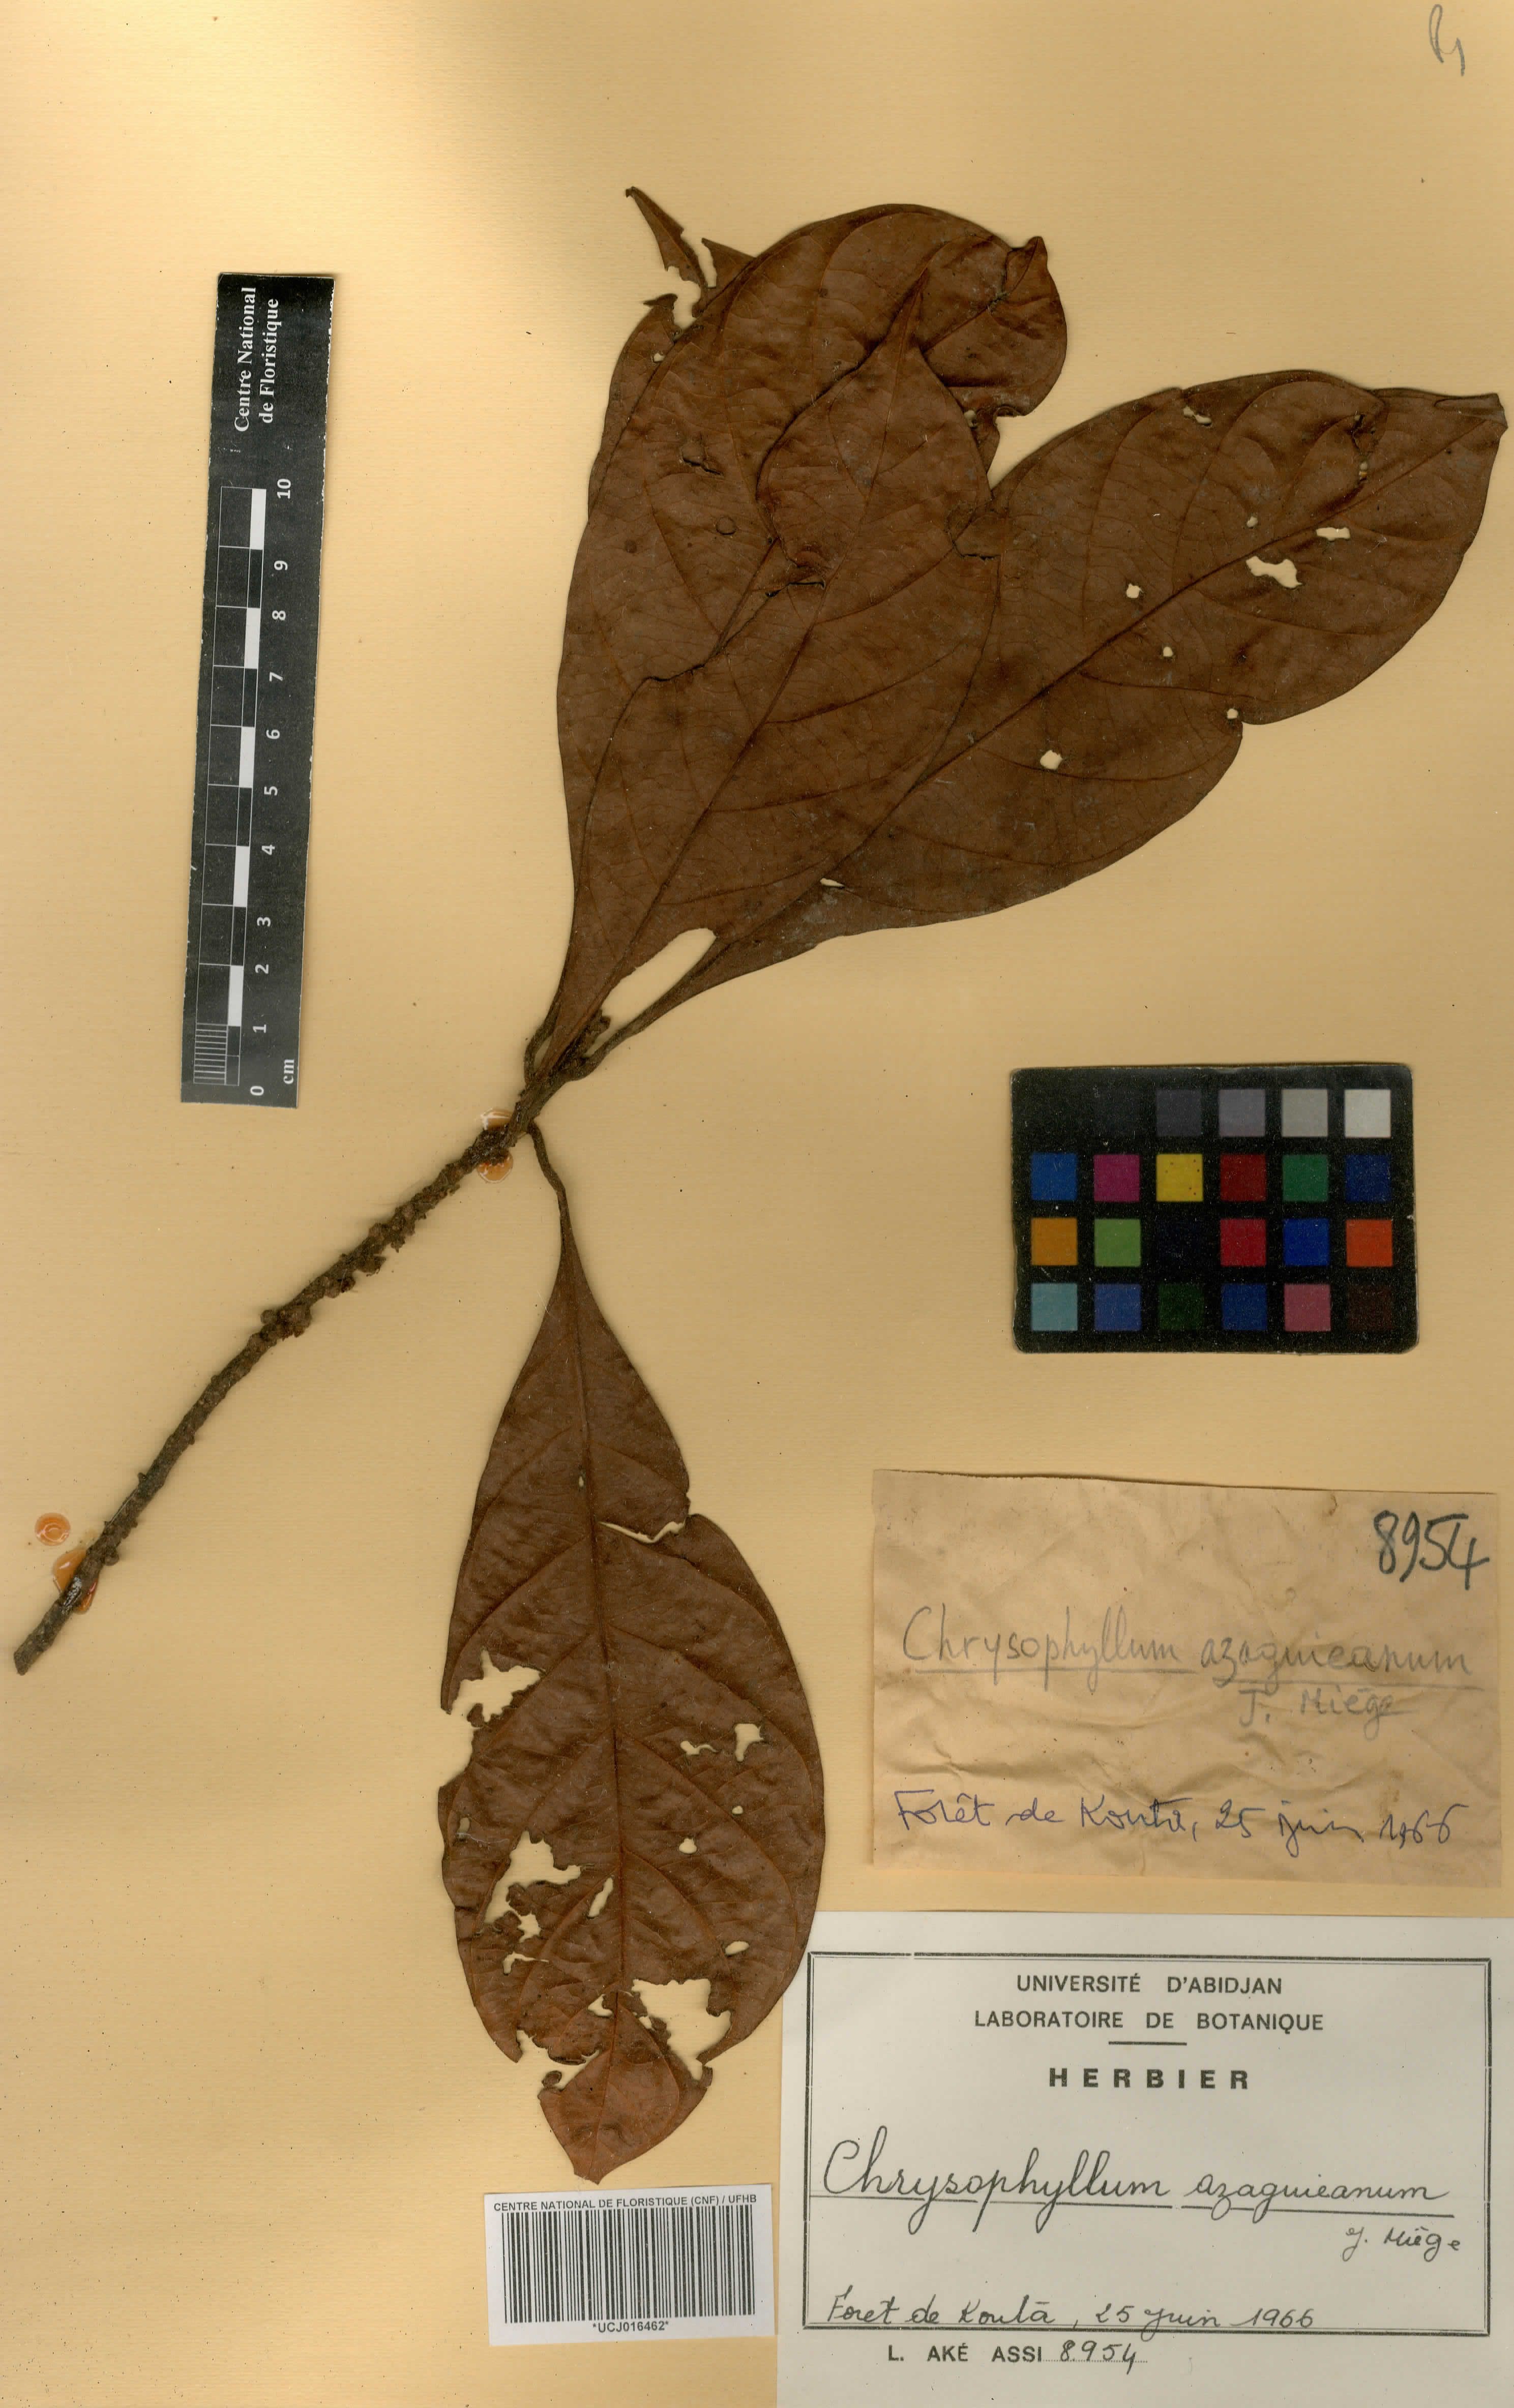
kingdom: Plantae
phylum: Tracheophyta
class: Magnoliopsida
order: Ericales
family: Sapotaceae
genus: Gambeya
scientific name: Gambeya azaguieana
